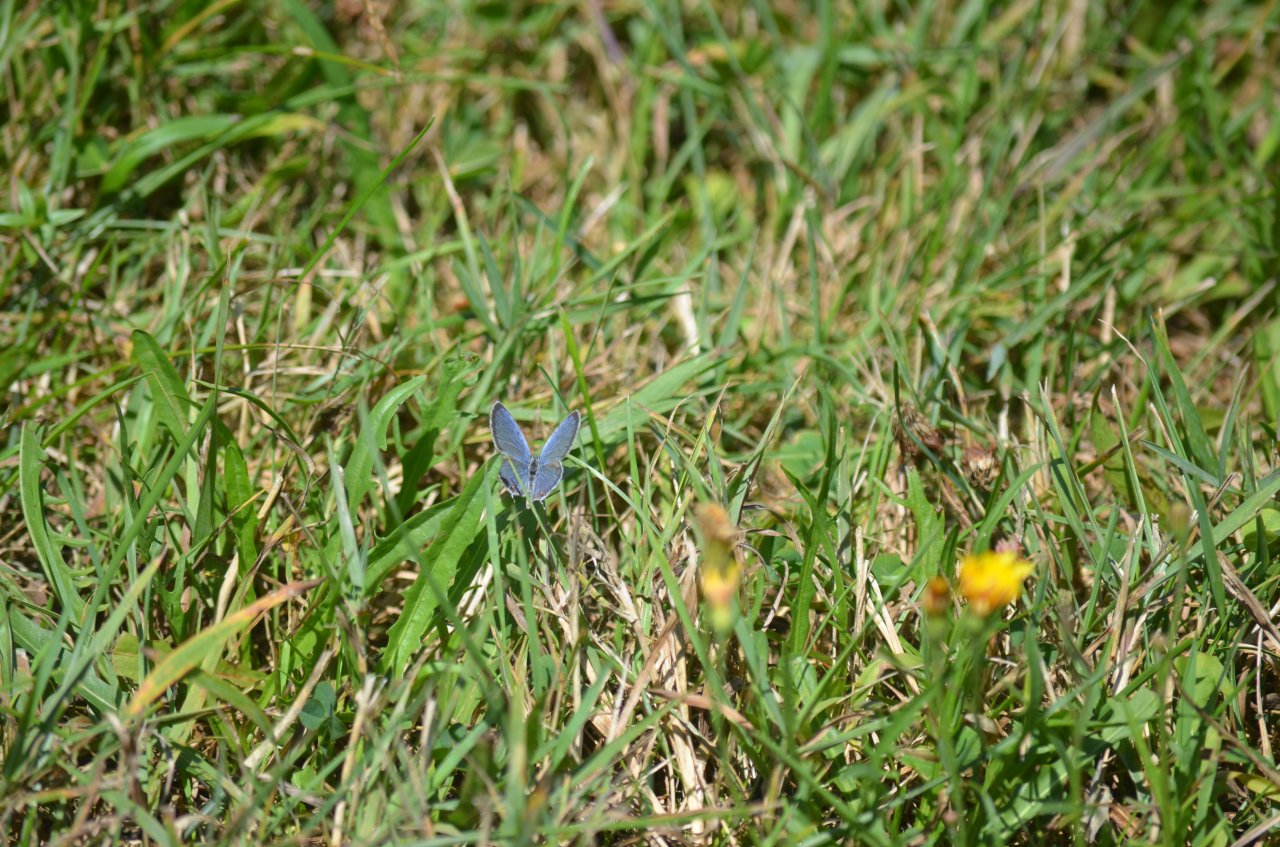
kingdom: Animalia
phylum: Arthropoda
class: Insecta
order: Lepidoptera
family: Lycaenidae
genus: Elkalyce
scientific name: Elkalyce comyntas
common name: Eastern Tailed-Blue
